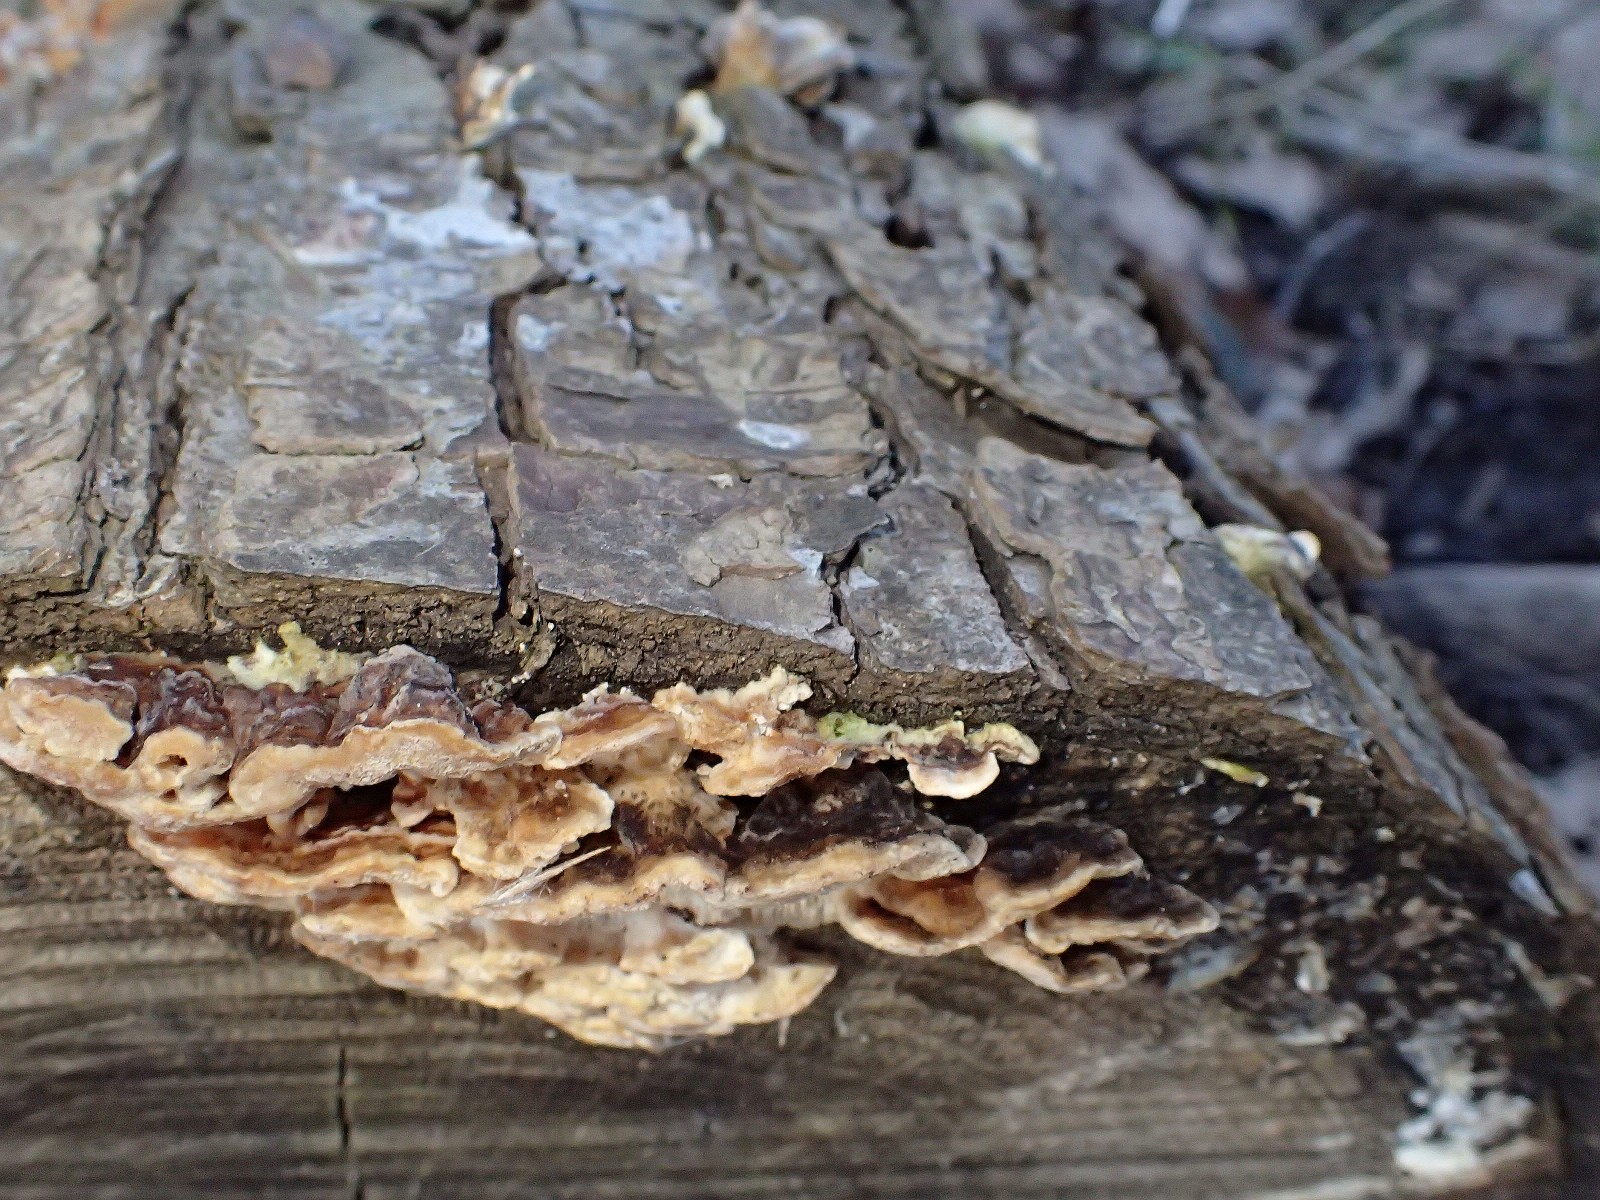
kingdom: Fungi
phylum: Basidiomycota
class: Agaricomycetes
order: Polyporales
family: Polyporaceae
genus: Podofomes
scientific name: Podofomes mollis
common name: blød begporesvamp
